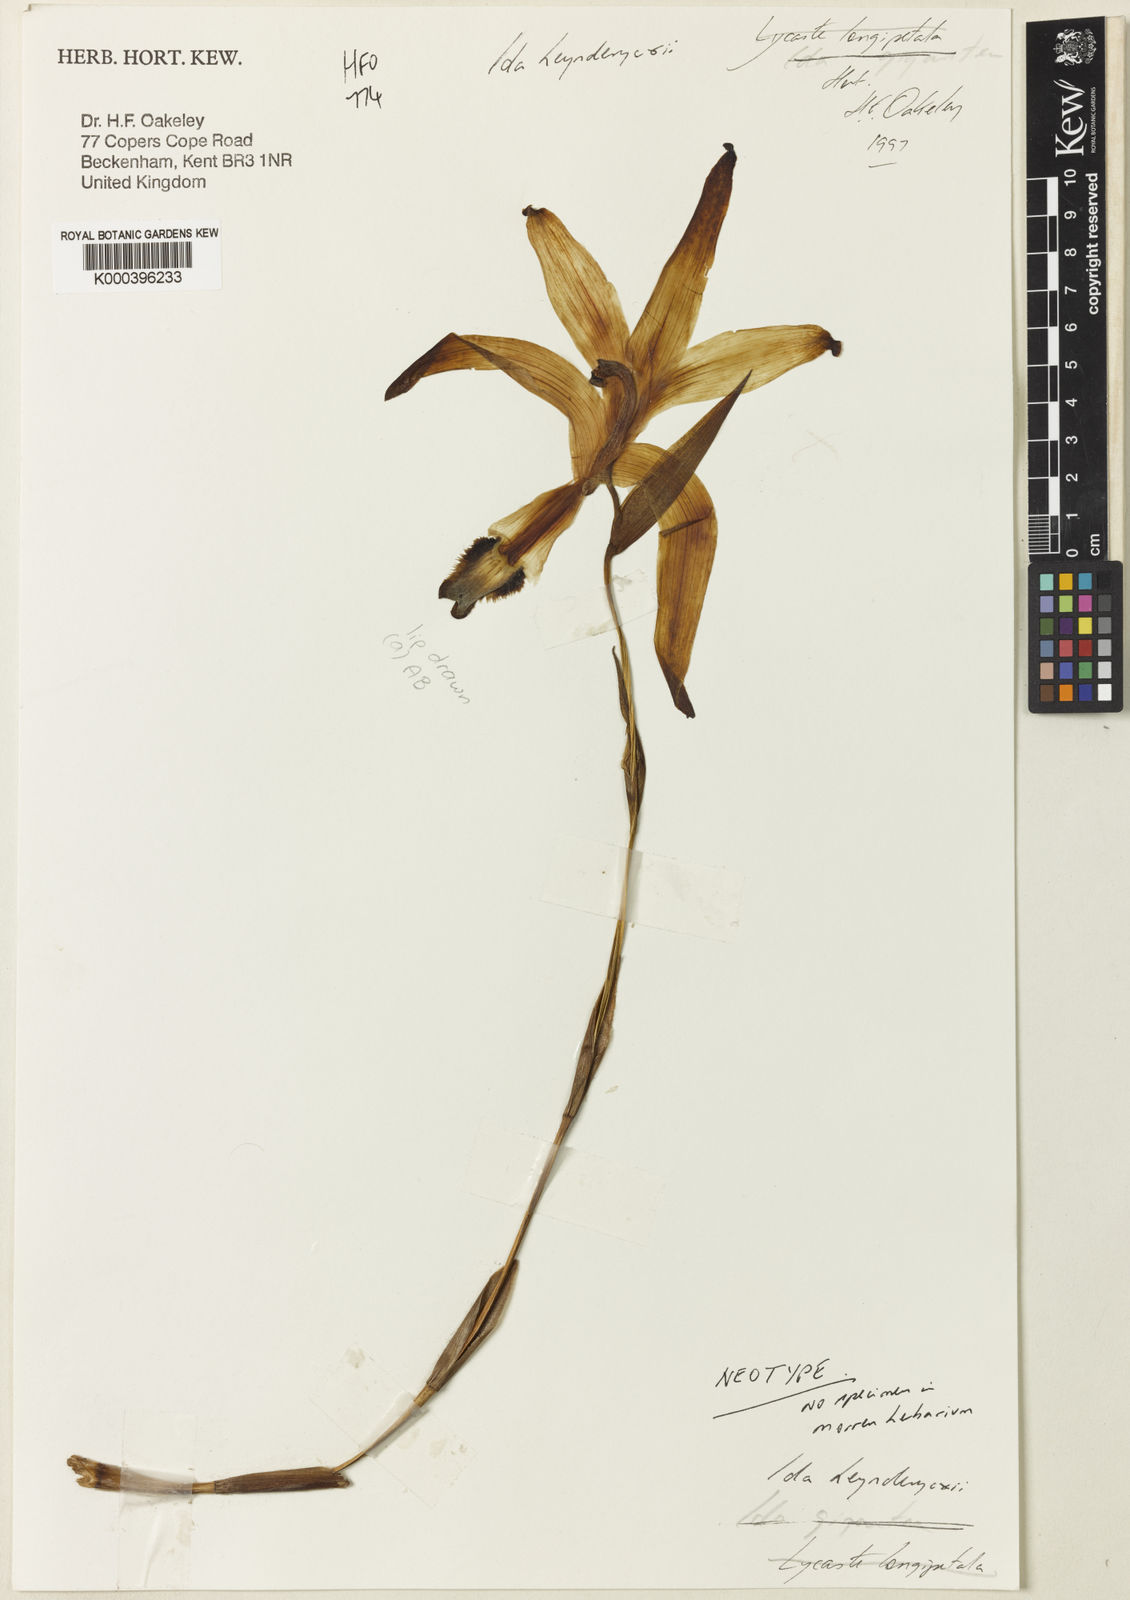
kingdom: Plantae
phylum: Tracheophyta
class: Liliopsida
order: Asparagales
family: Orchidaceae
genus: Ida
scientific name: Ida heynderycxii
